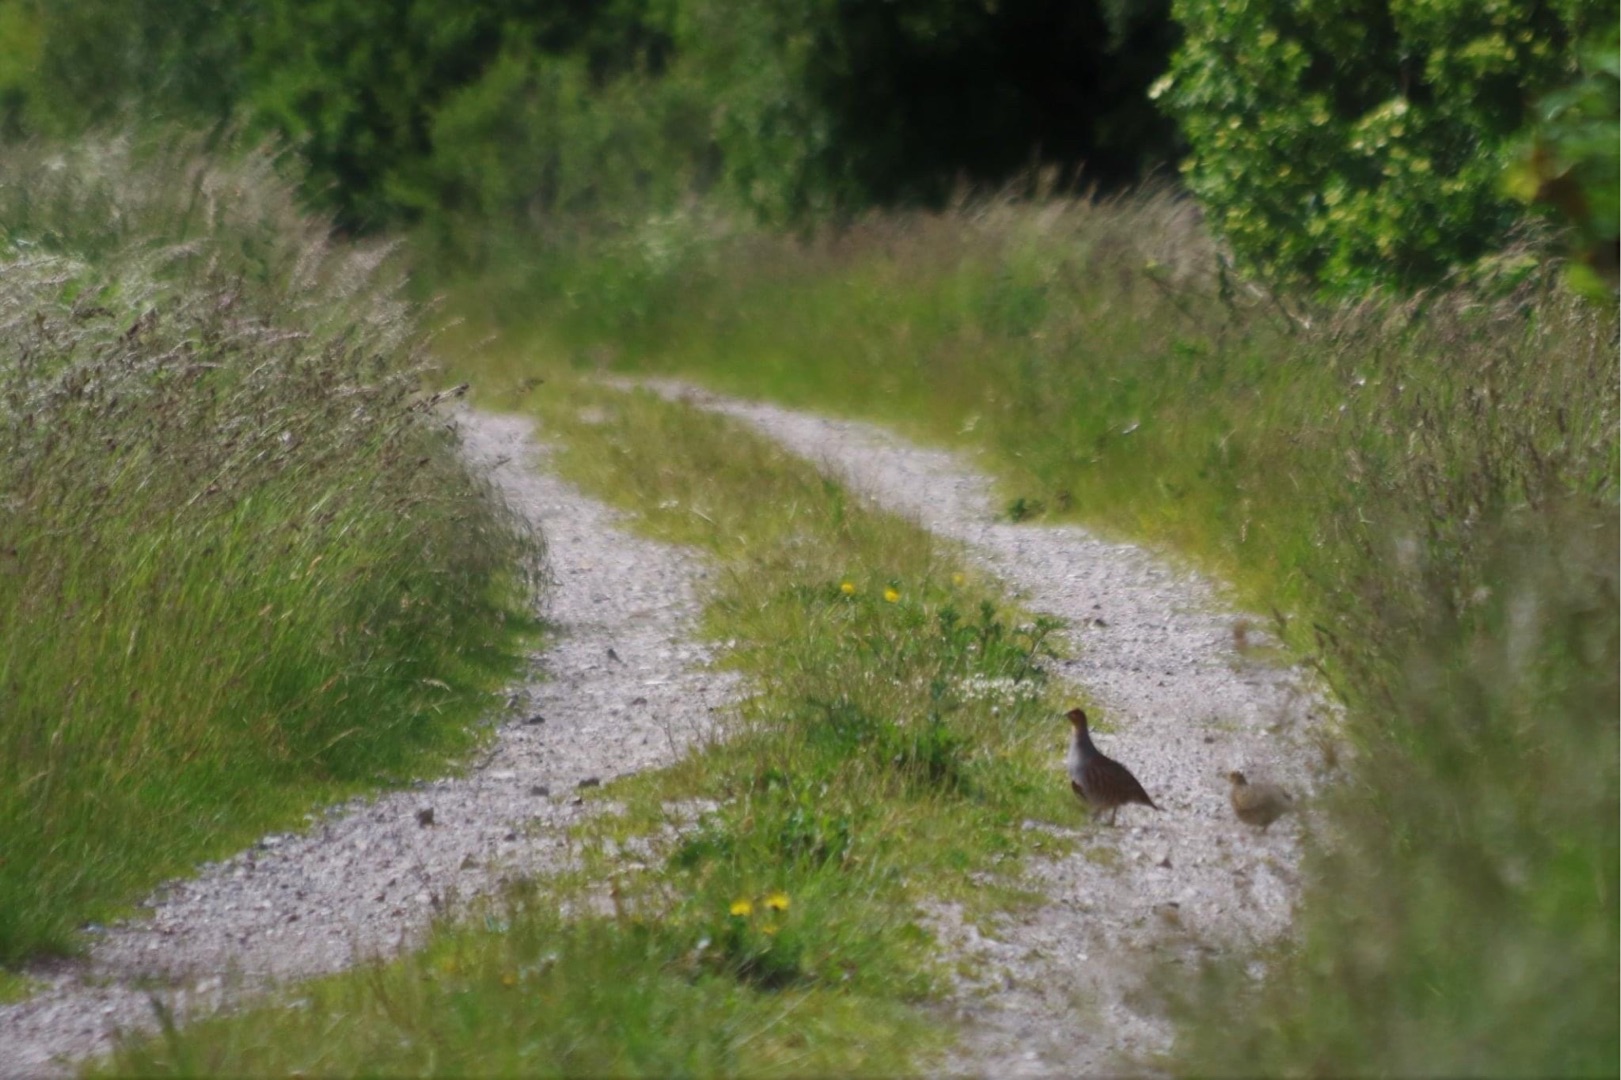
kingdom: Animalia
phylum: Chordata
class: Aves
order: Galliformes
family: Phasianidae
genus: Perdix
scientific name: Perdix perdix
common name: Agerhøne
